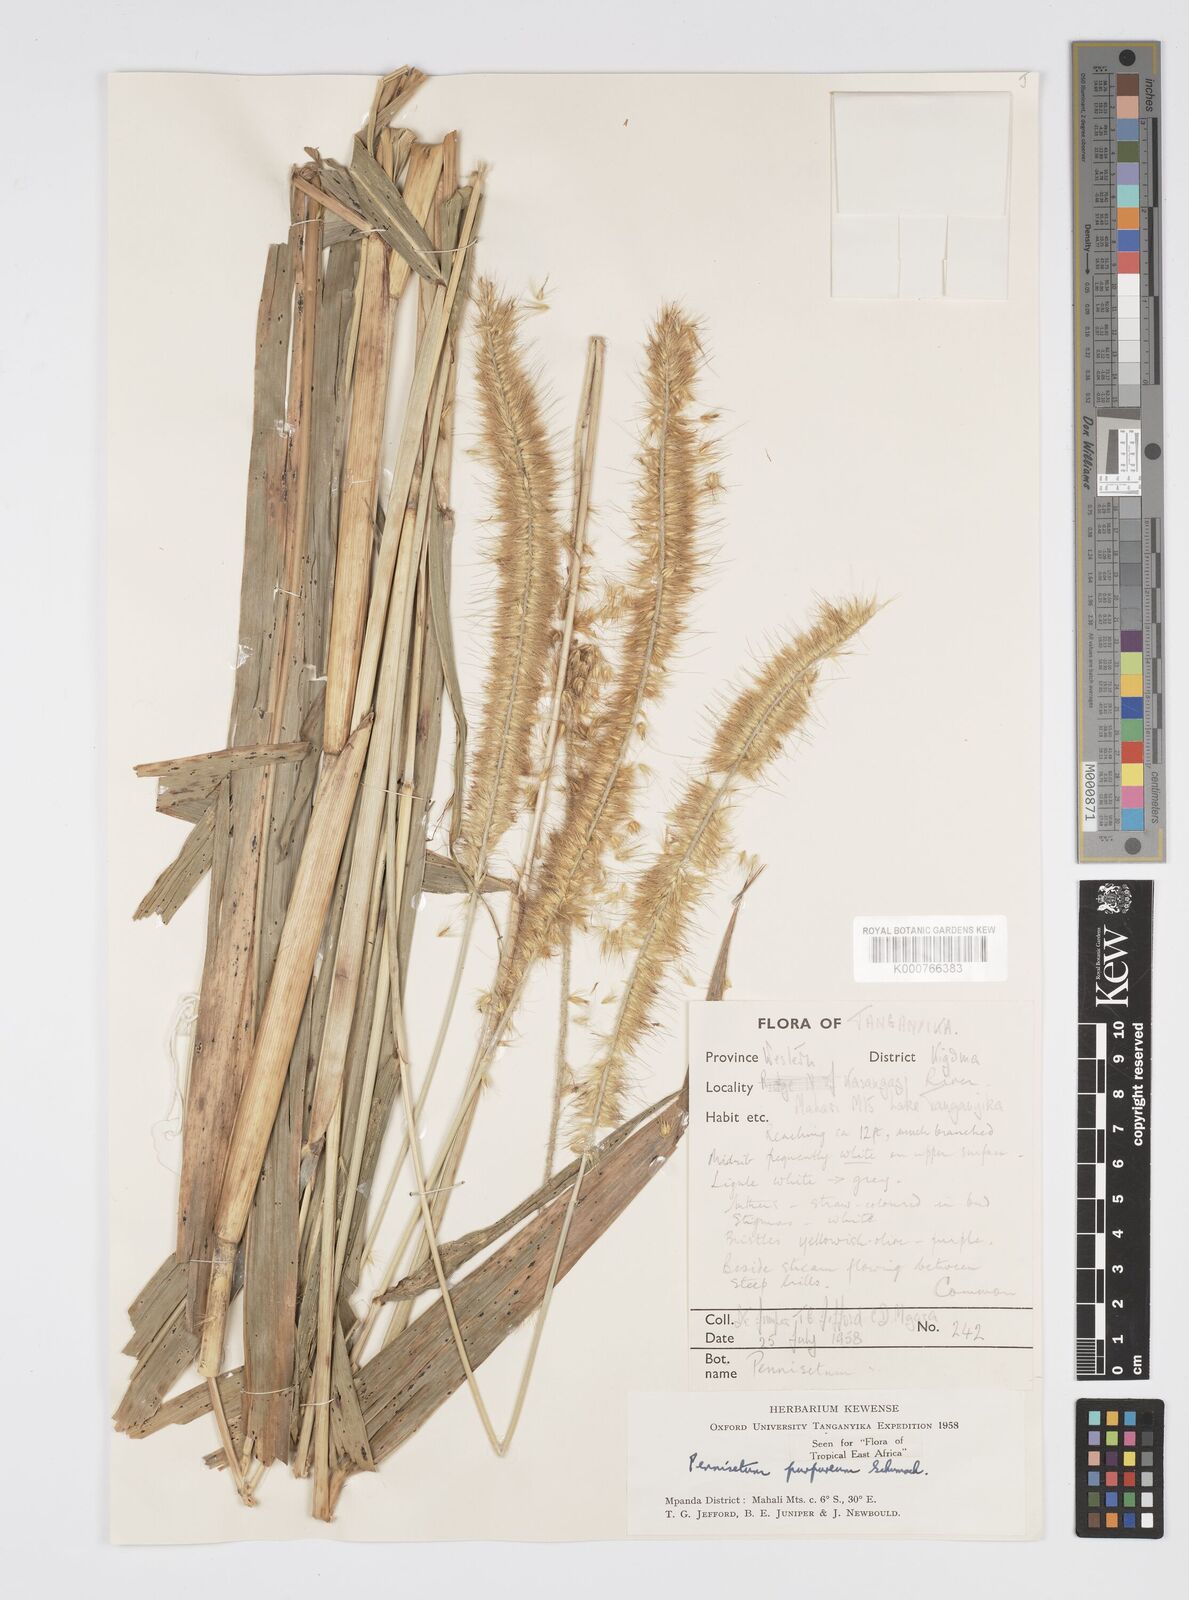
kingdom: Plantae
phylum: Tracheophyta
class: Liliopsida
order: Poales
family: Poaceae
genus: Cenchrus
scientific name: Cenchrus purpureus
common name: Elephant grass
